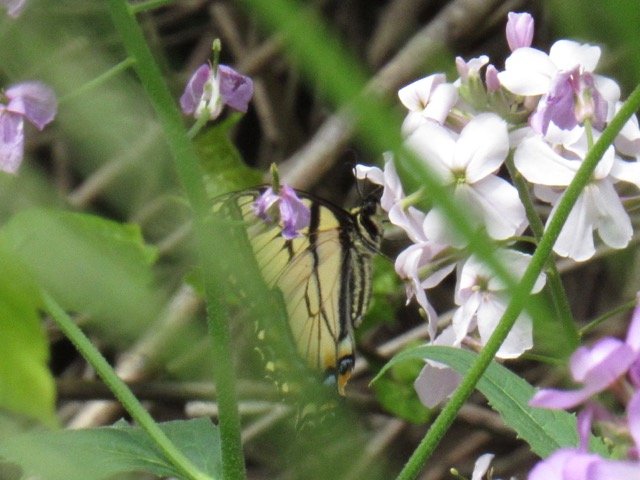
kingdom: Animalia
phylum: Arthropoda
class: Insecta
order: Lepidoptera
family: Papilionidae
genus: Pterourus
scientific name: Pterourus canadensis
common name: Canadian Tiger Swallowtail
